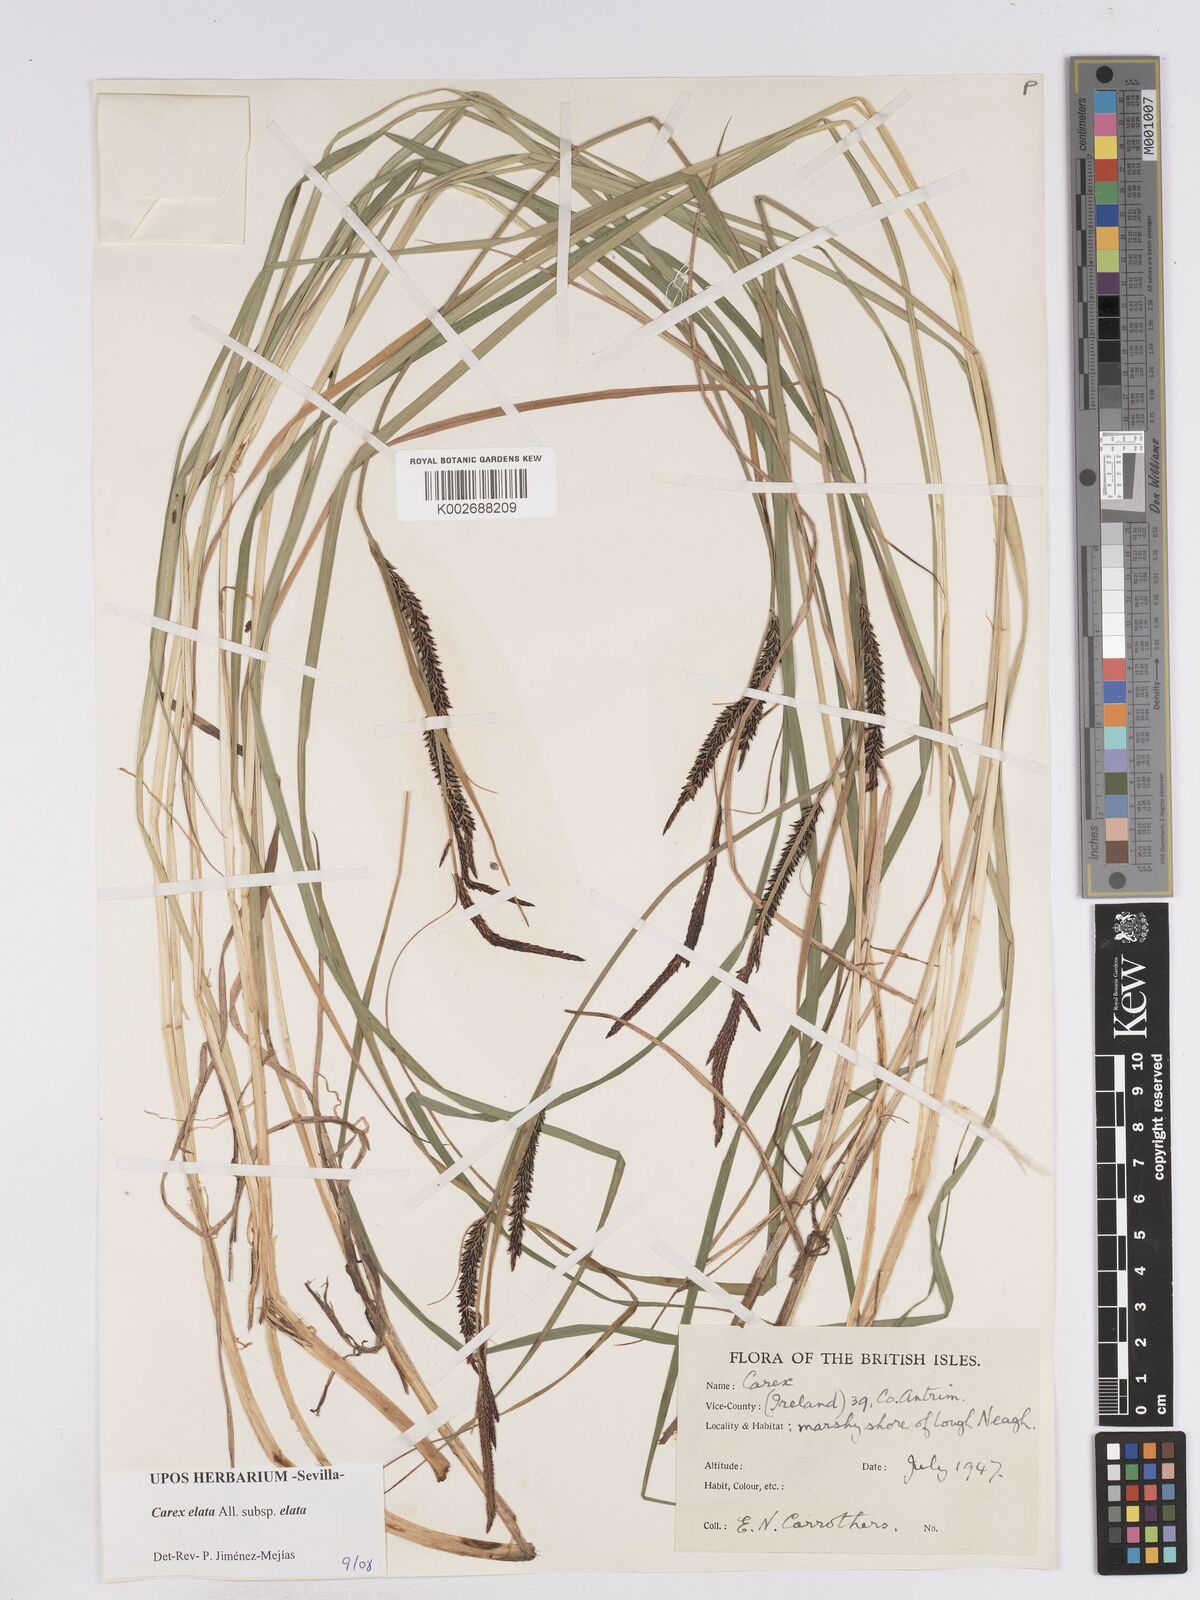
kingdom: Plantae
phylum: Tracheophyta
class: Liliopsida
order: Poales
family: Cyperaceae
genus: Carex
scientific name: Carex elata
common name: Tufted sedge
